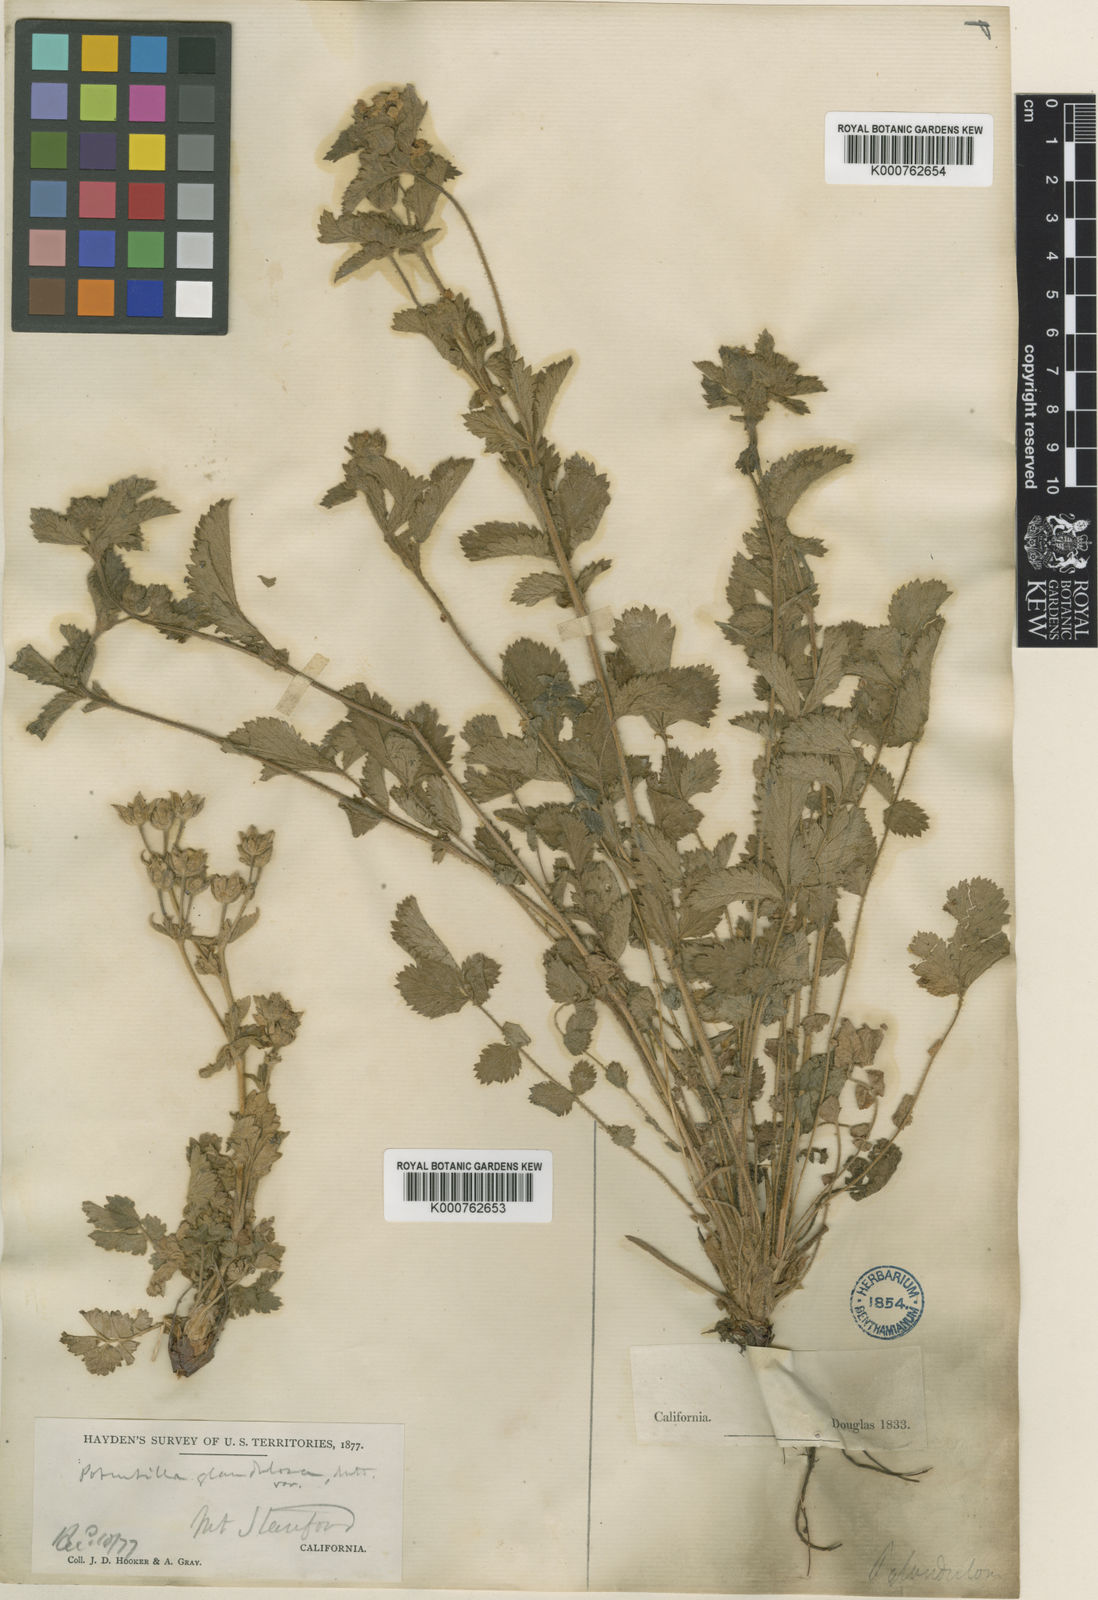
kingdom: Plantae
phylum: Tracheophyta
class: Magnoliopsida
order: Rosales
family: Rosaceae
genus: Drymocallis
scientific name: Drymocallis glandulosa
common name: Sticky cinquefoil
